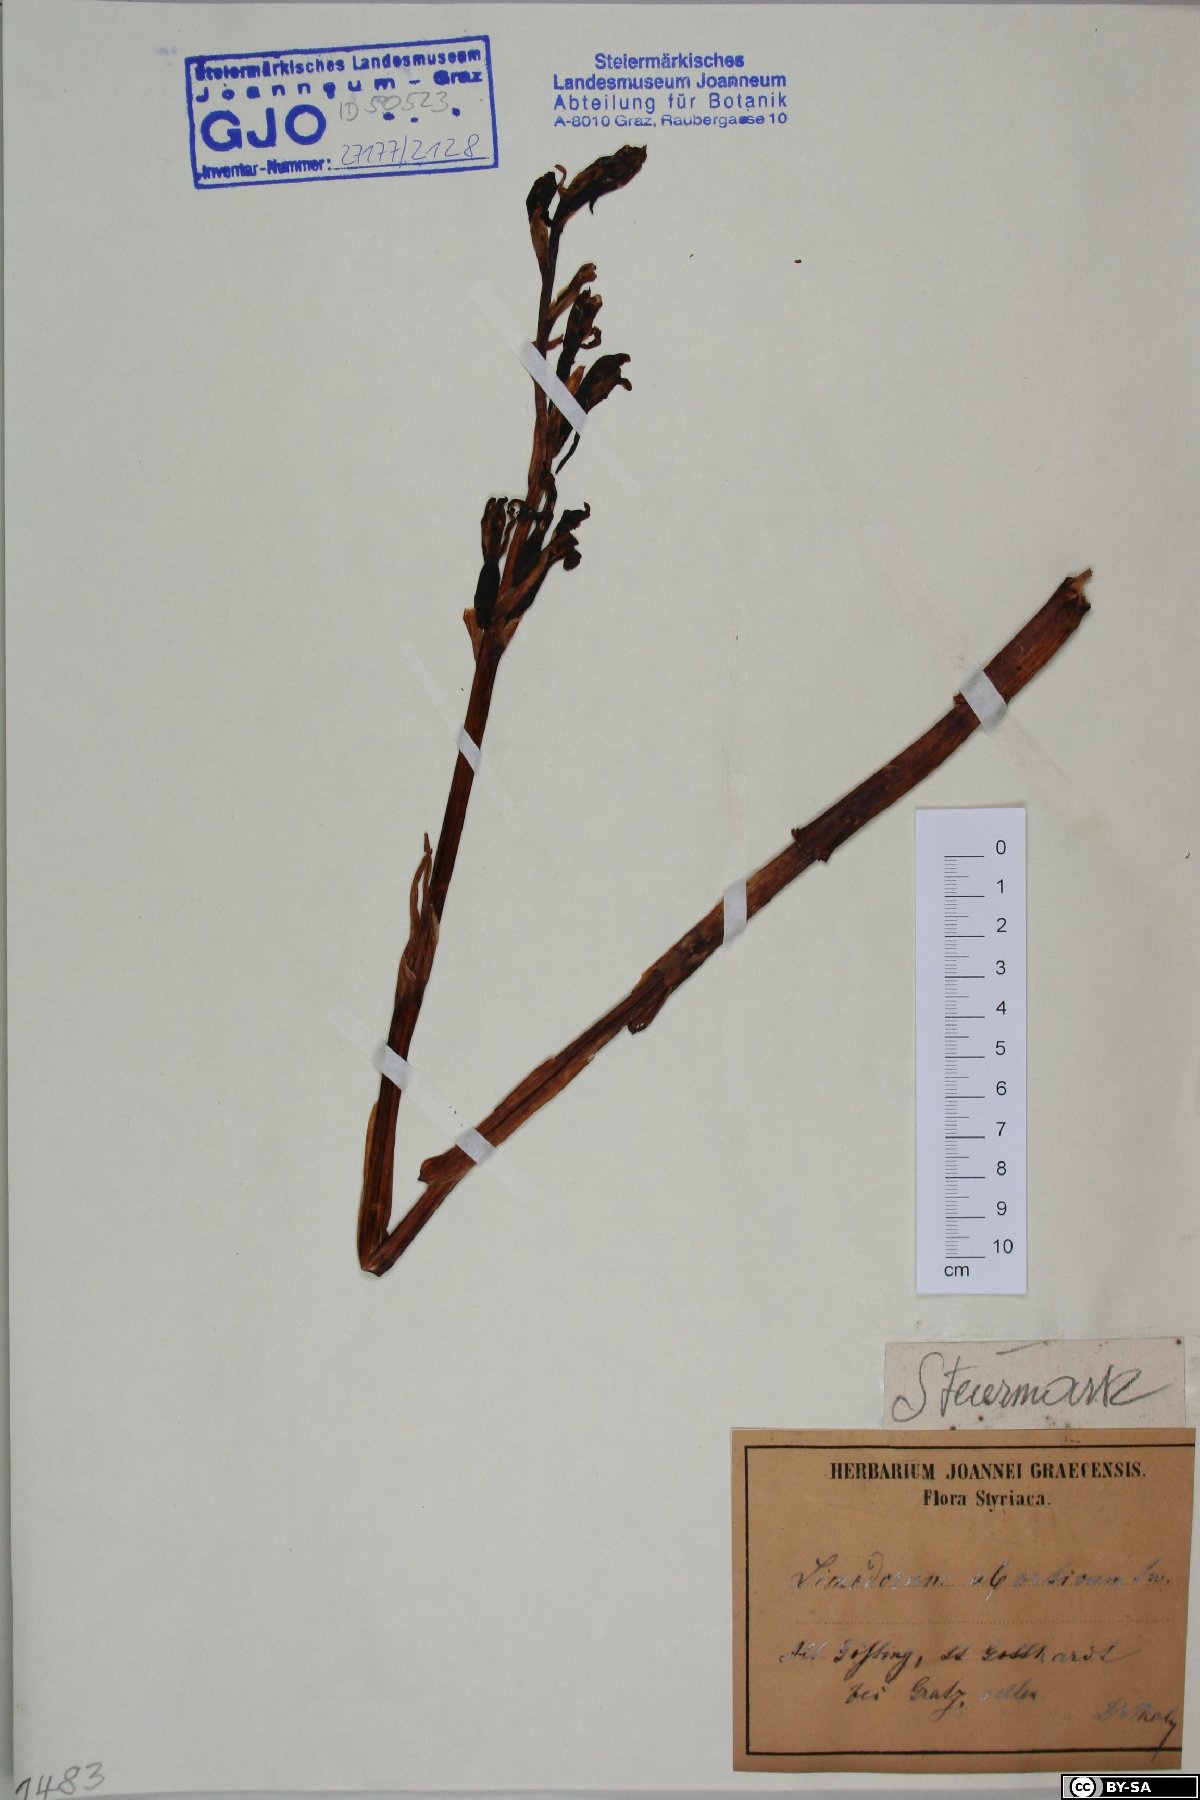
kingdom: Plantae
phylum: Tracheophyta
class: Liliopsida
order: Asparagales
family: Orchidaceae
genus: Limodorum
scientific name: Limodorum abortivum
